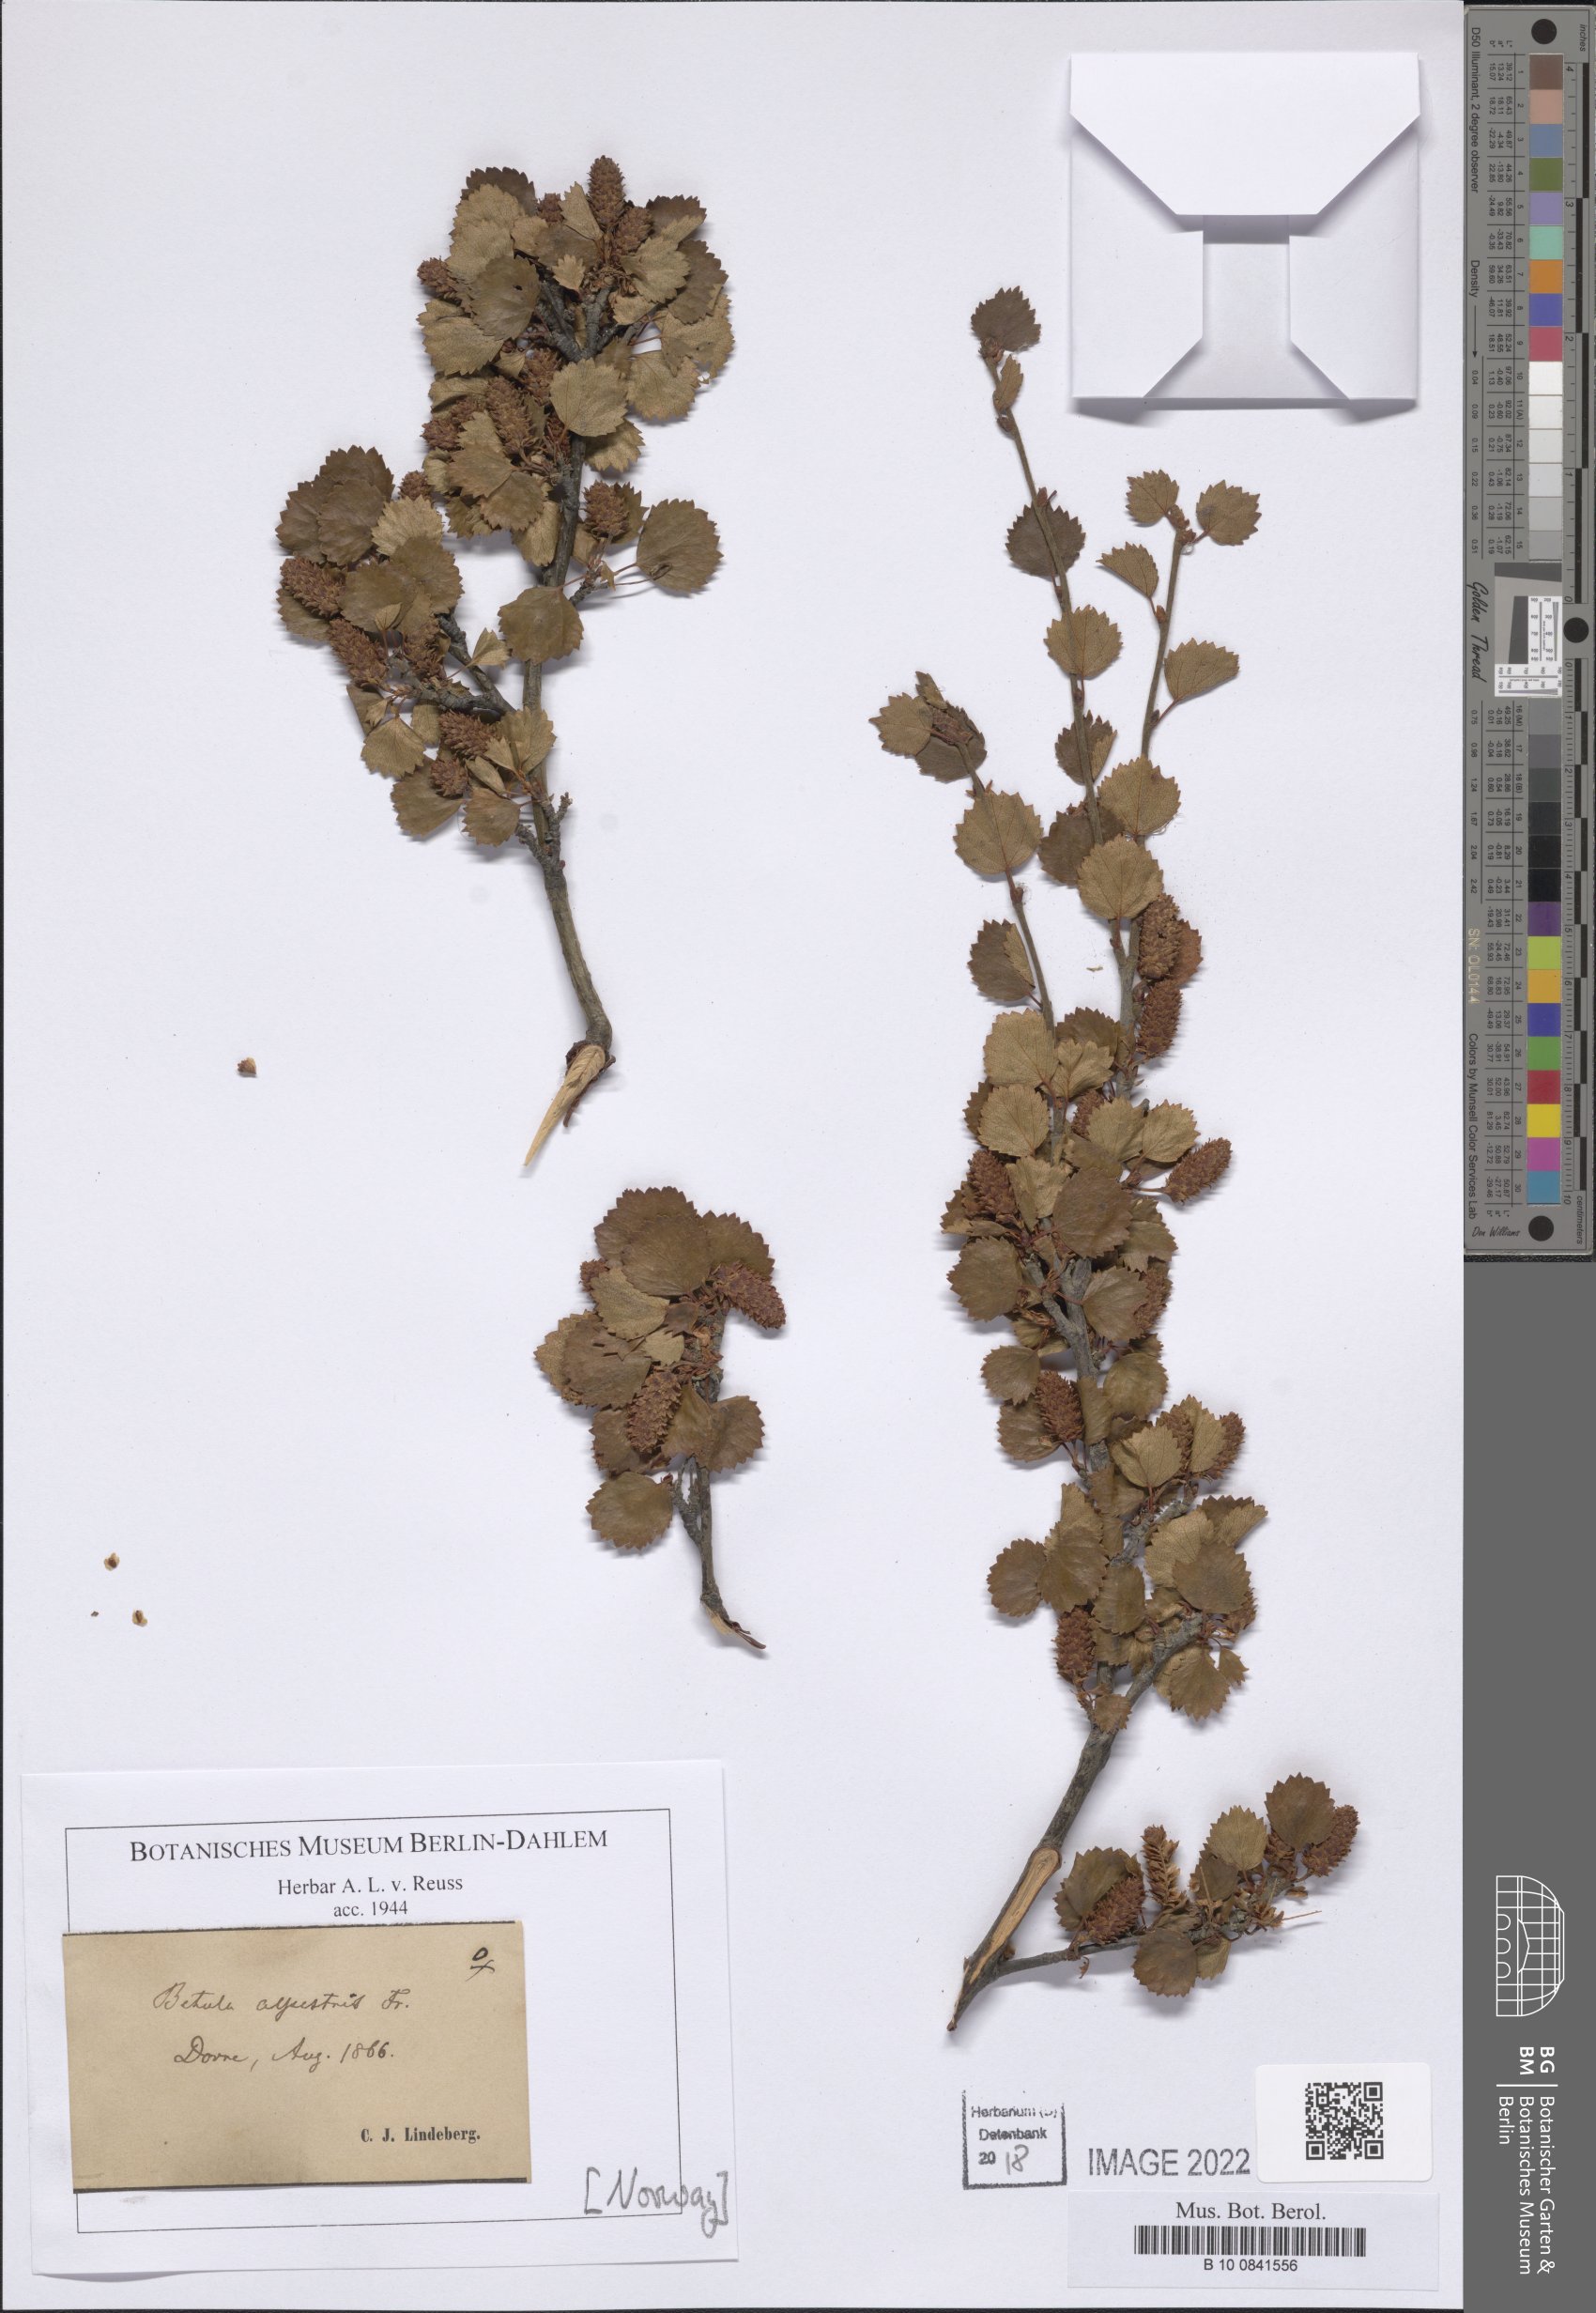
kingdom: Plantae
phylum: Tracheophyta
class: Magnoliopsida
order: Fagales
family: Betulaceae
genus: Betula
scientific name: Betula intermedia
